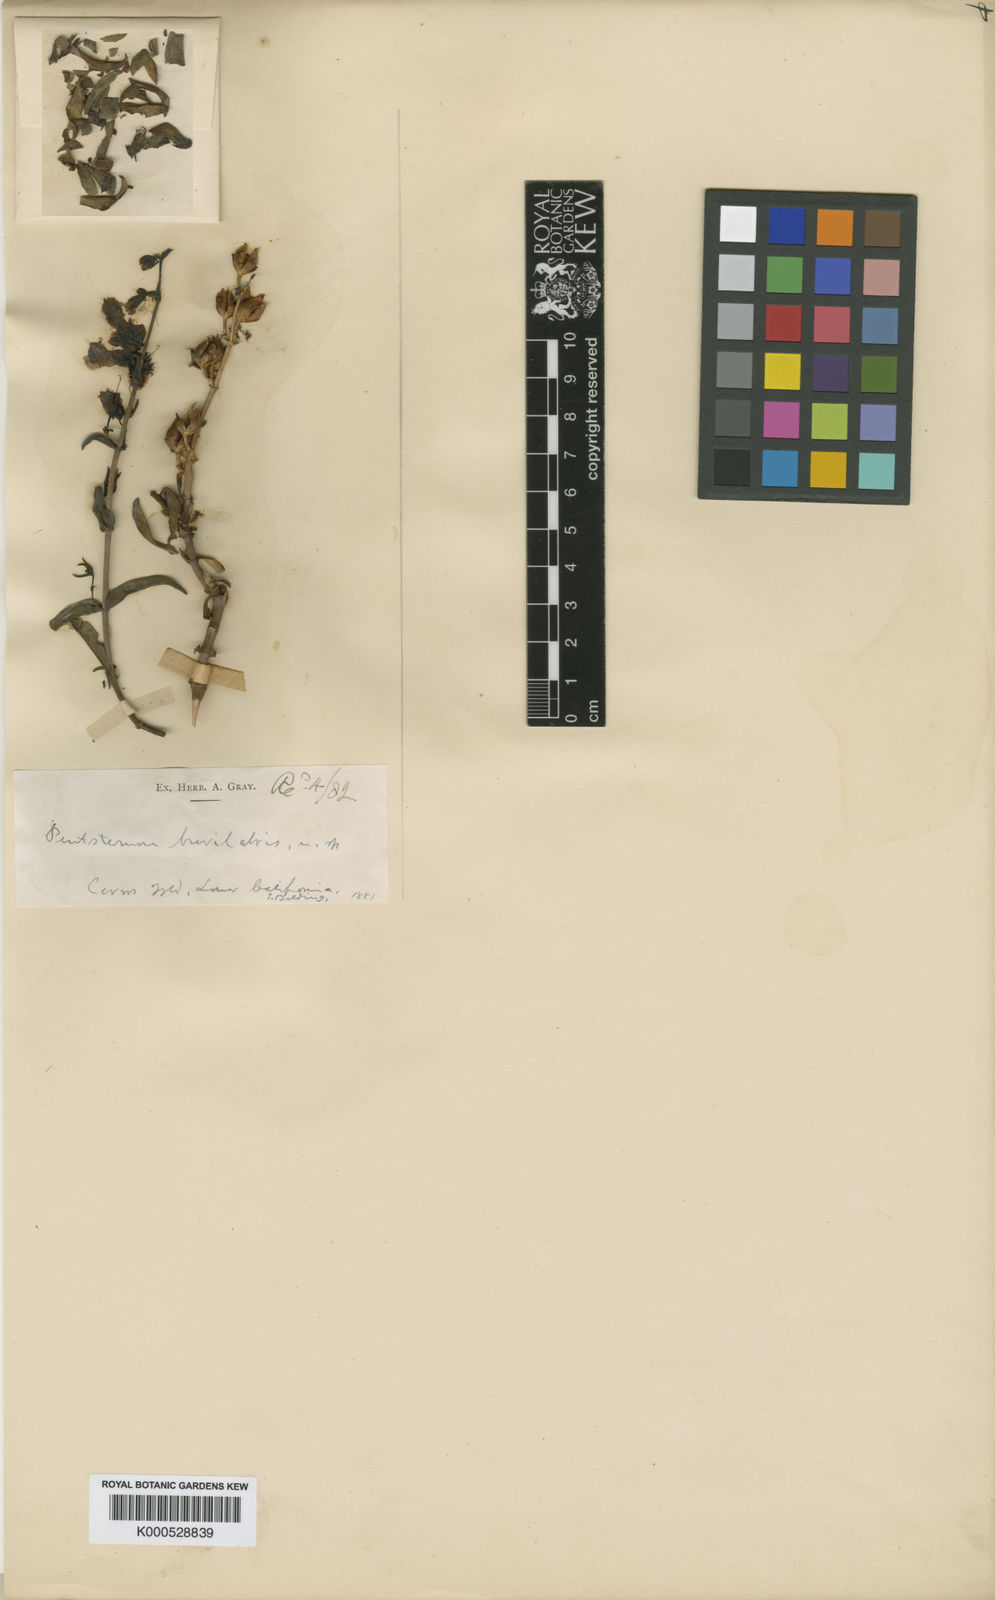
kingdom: Plantae
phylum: Tracheophyta
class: Magnoliopsida
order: Lamiales
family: Plantaginaceae
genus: Penstemon
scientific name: Penstemon
